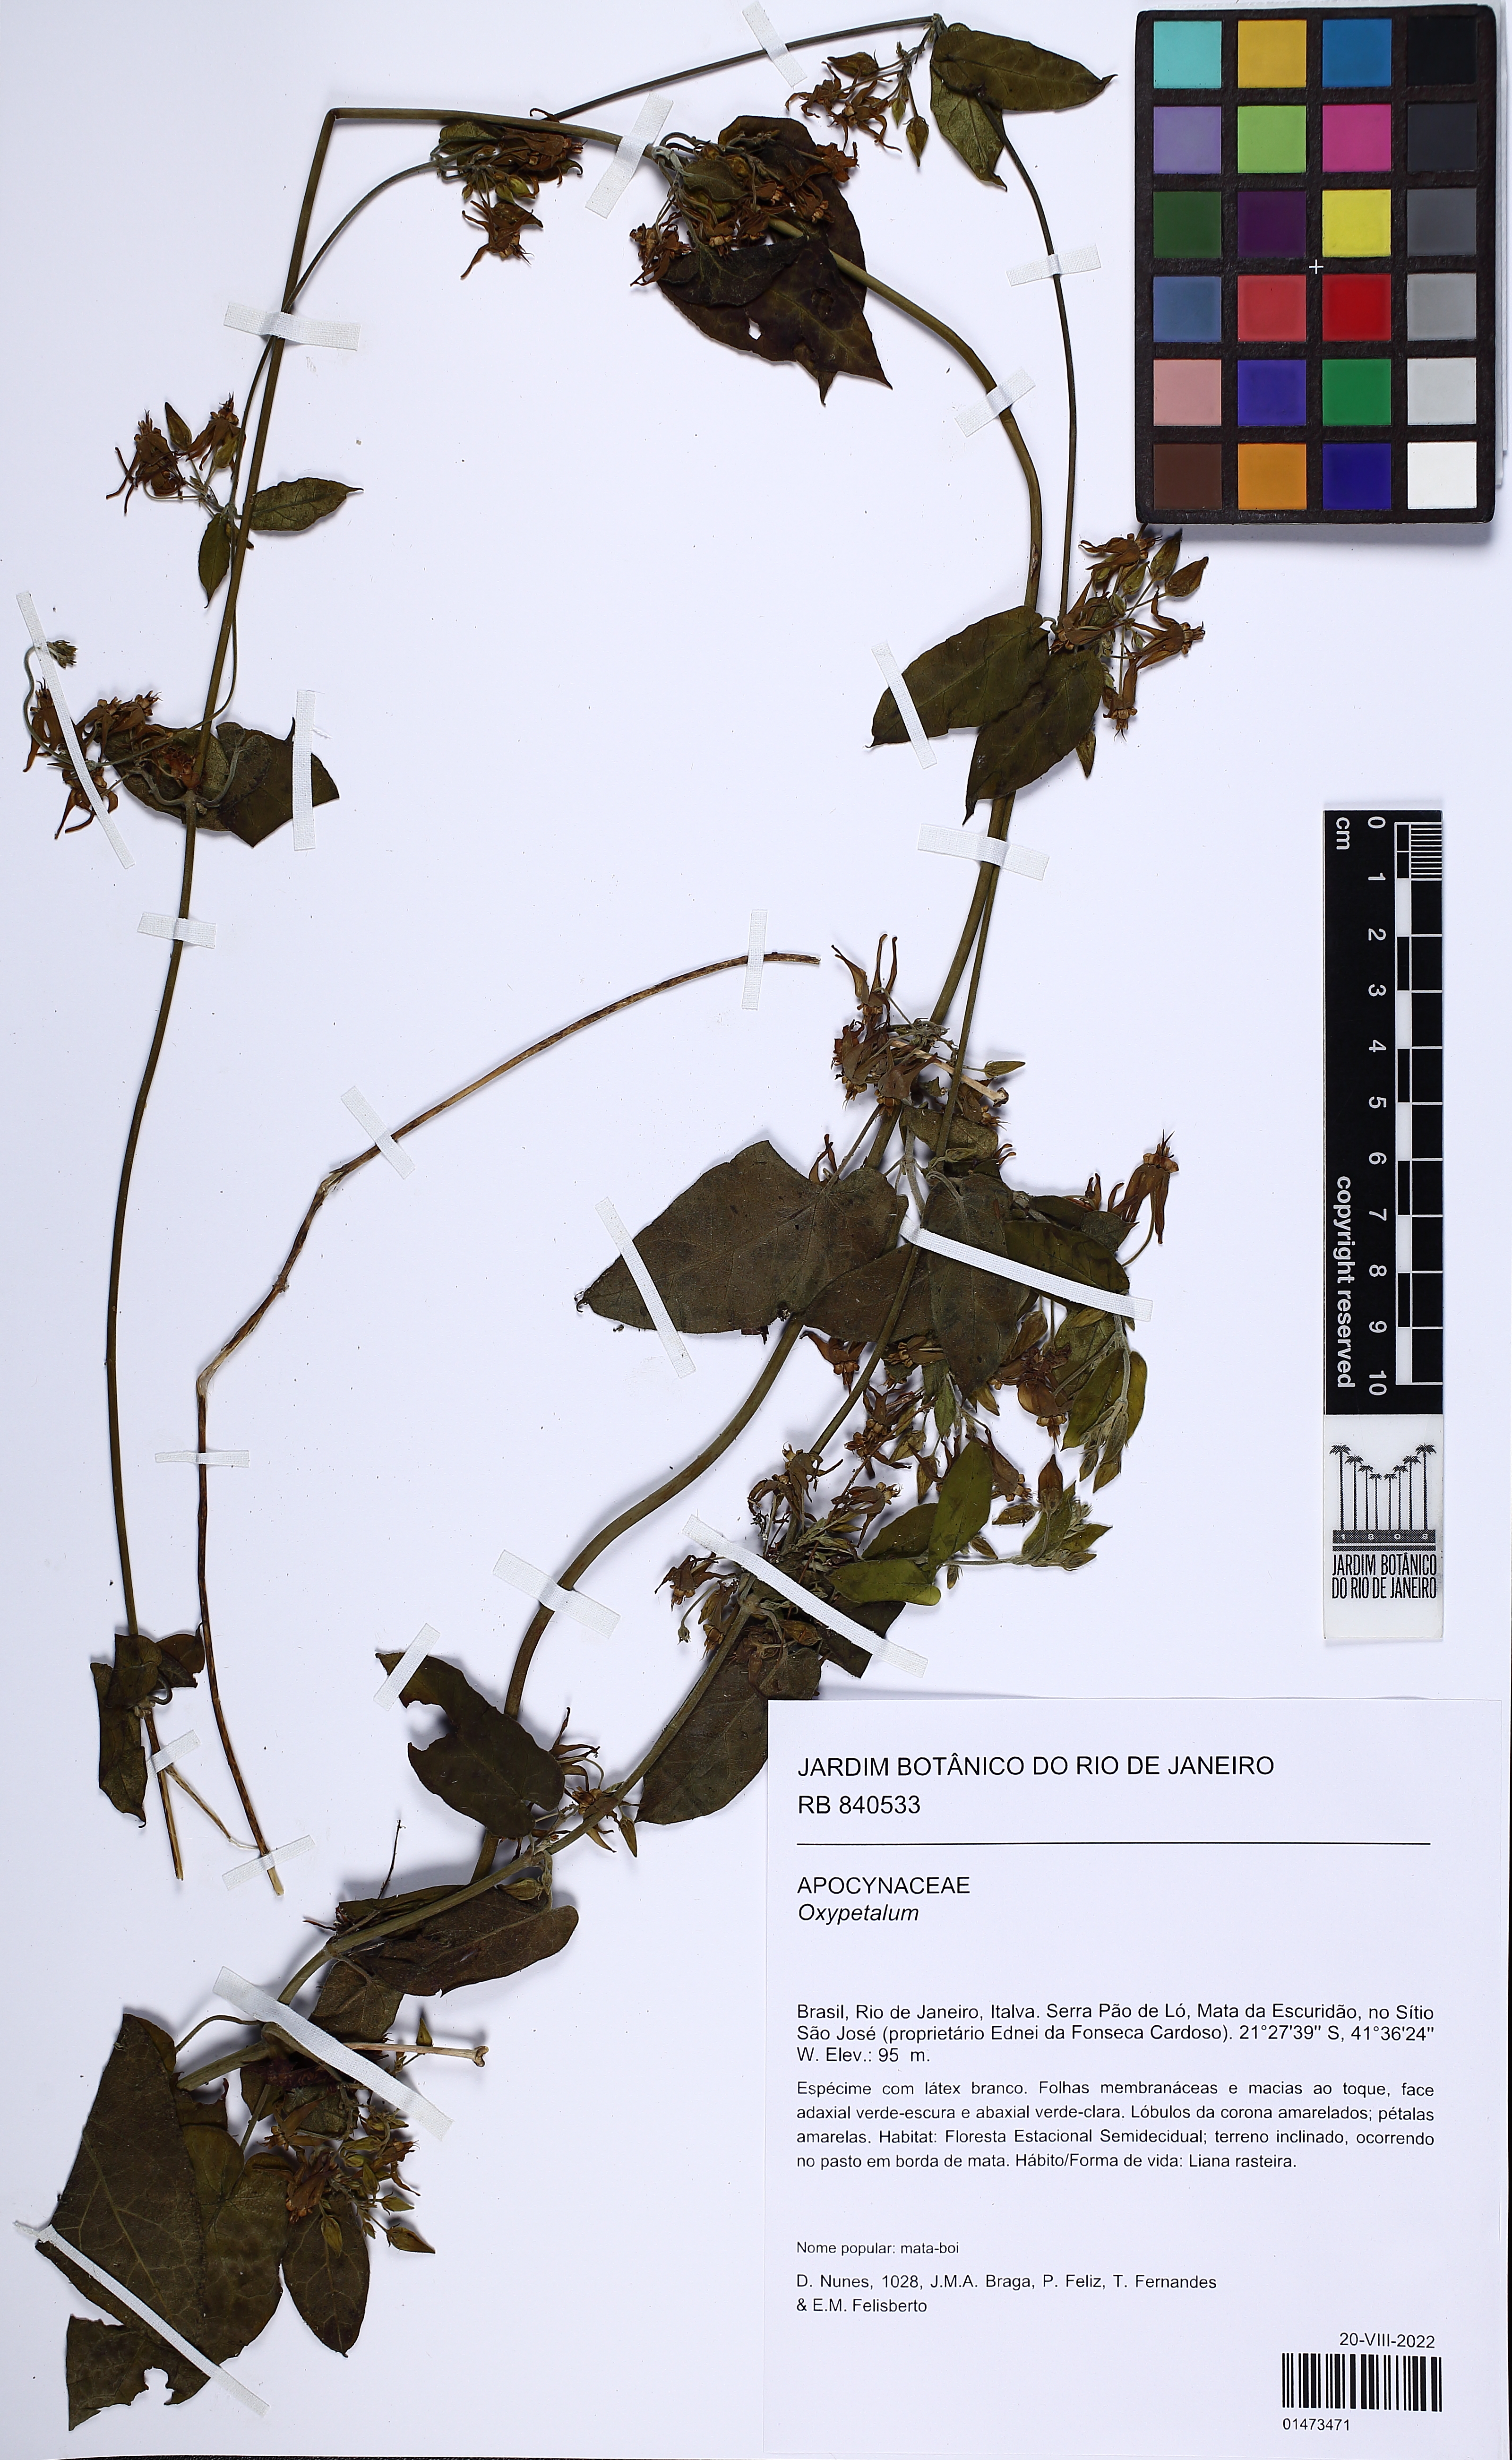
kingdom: Plantae
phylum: Tracheophyta
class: Magnoliopsida
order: Gentianales
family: Apocynaceae
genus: Oxypetalum
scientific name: Oxypetalum banksii
